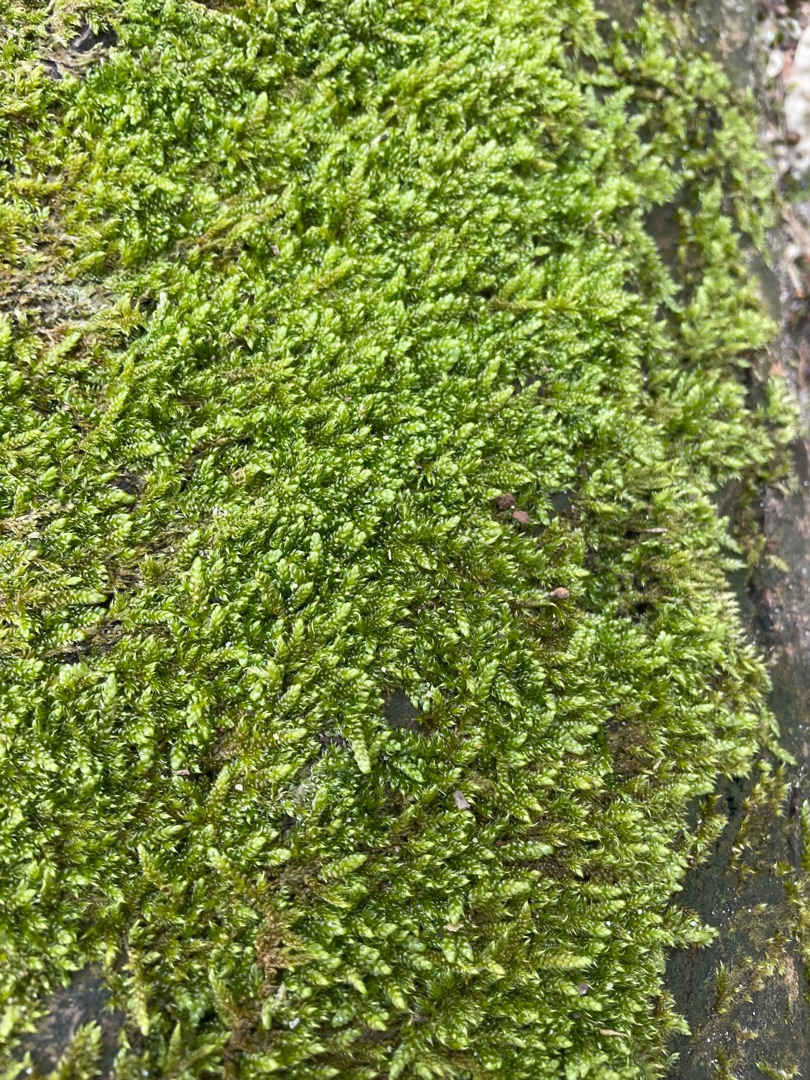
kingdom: Plantae
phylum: Bryophyta
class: Bryopsida
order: Hypnales
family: Hypnaceae
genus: Hypnum
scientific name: Hypnum cupressiforme
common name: Almindelig cypresmos
